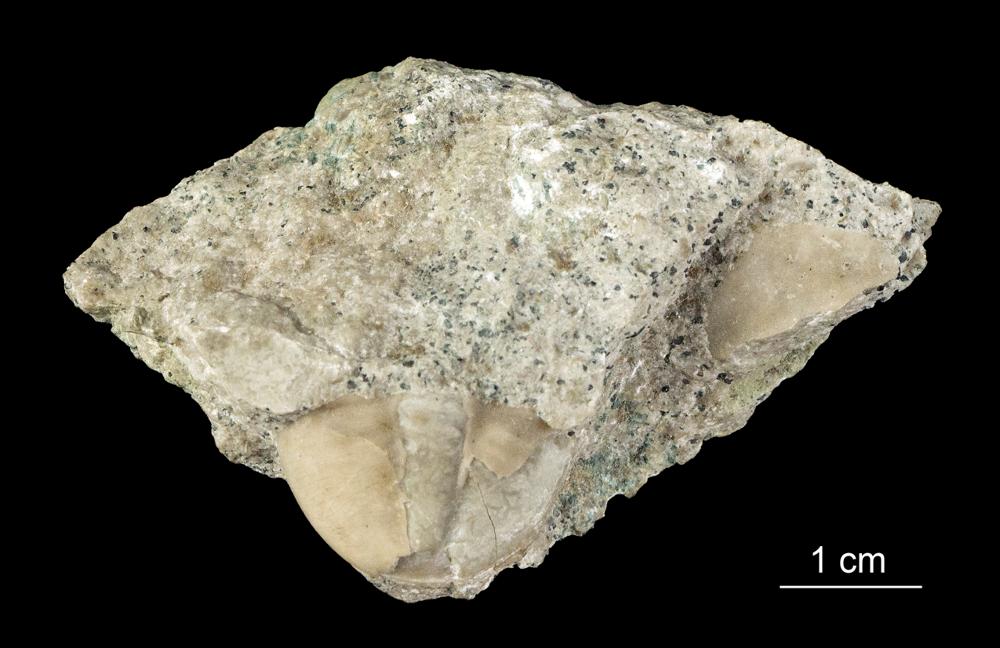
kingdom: Animalia
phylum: Arthropoda
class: Trilobita
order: Asaphida
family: Asaphidae
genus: Megistaspis
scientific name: Megistaspis
